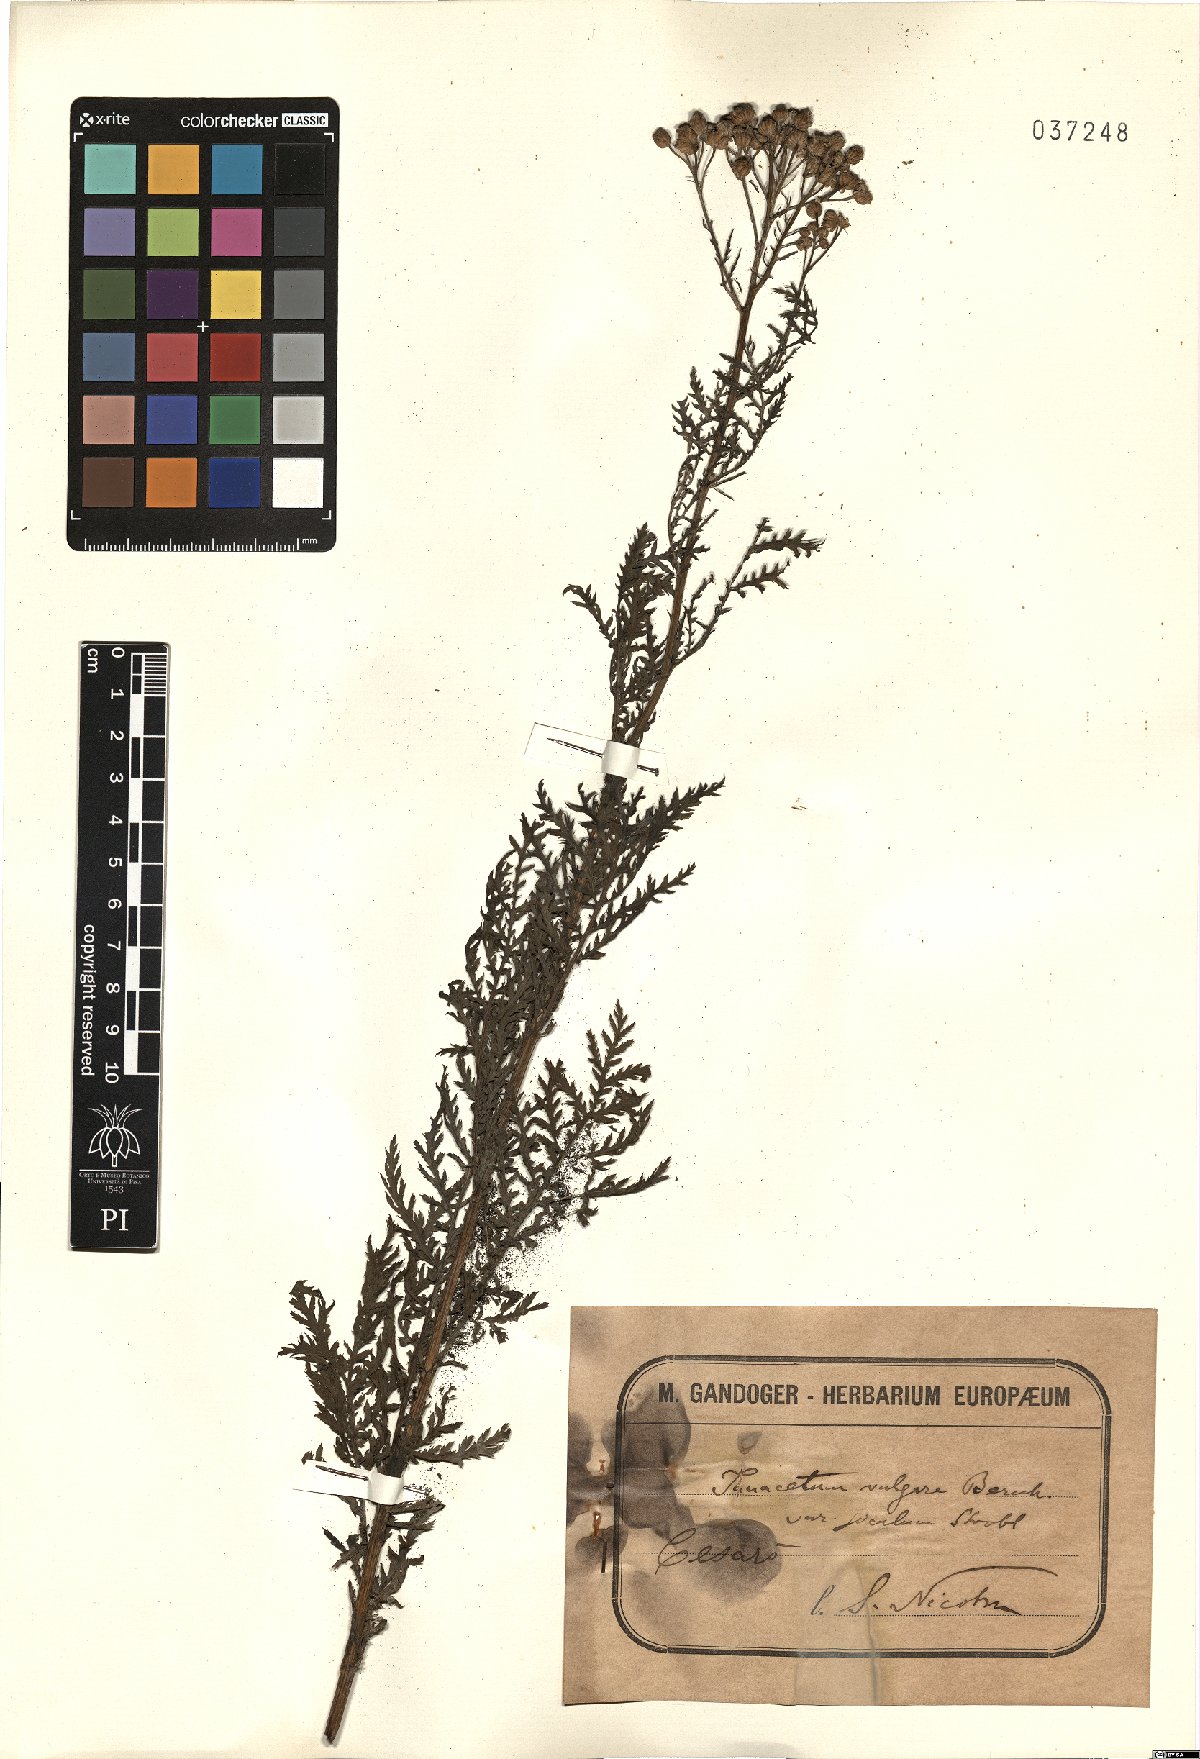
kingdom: Plantae
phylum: Tracheophyta
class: Magnoliopsida
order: Asterales
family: Asteraceae
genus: Tanacetum
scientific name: Tanacetum vulgare
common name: Common tansy
